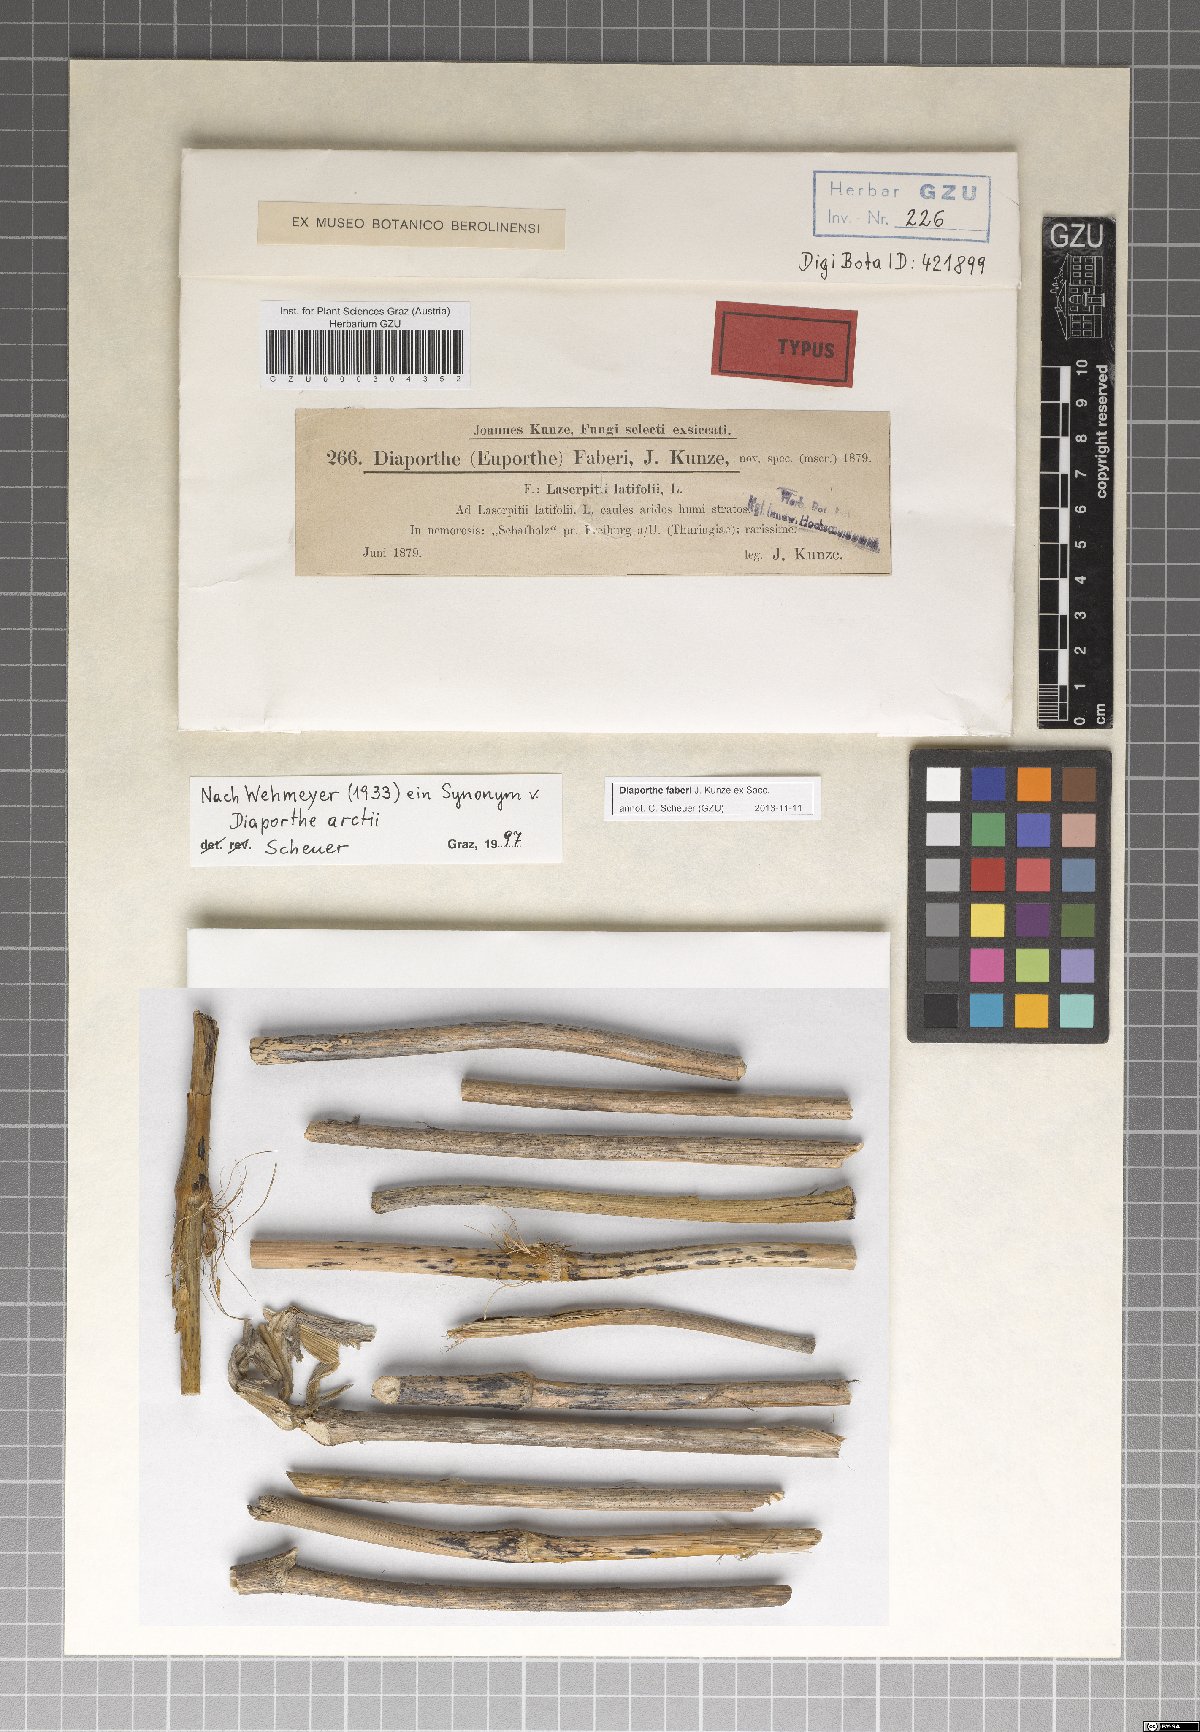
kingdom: Fungi
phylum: Ascomycota
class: Sordariomycetes
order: Diaporthales
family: Diaporthaceae
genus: Diaporthe
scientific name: Diaporthe faberi
